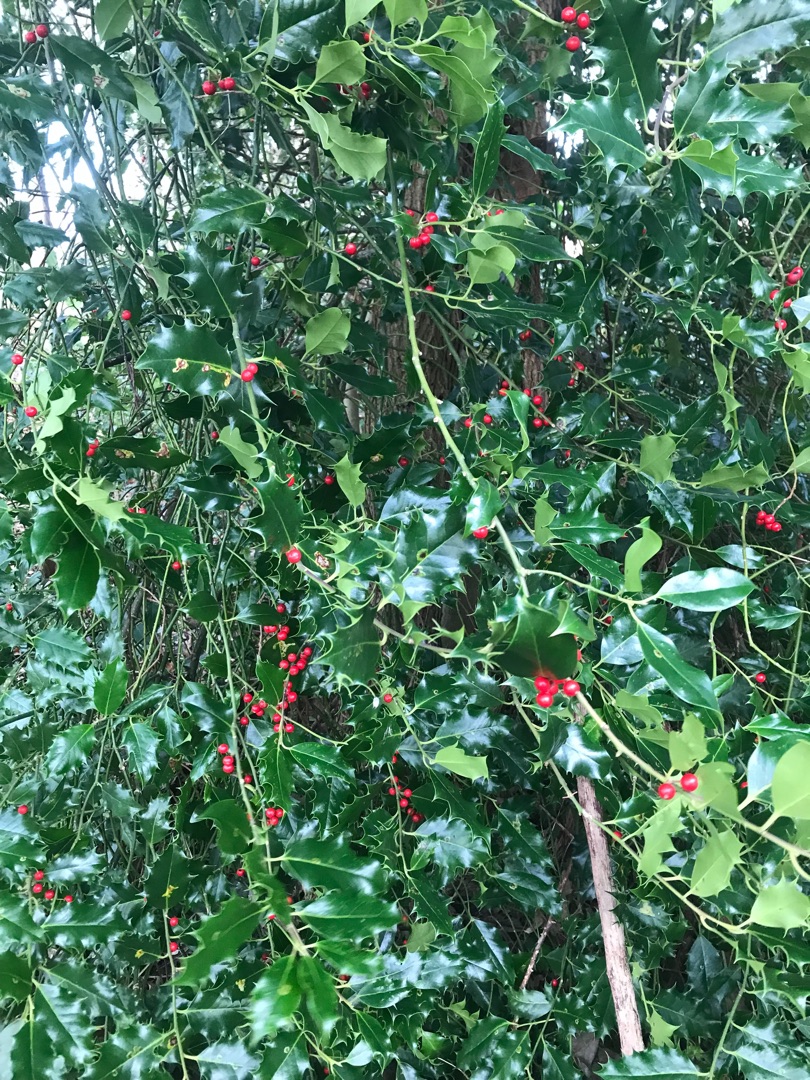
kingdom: Plantae
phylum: Tracheophyta
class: Magnoliopsida
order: Aquifoliales
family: Aquifoliaceae
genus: Ilex
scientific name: Ilex aquifolium
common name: Kristtorn
